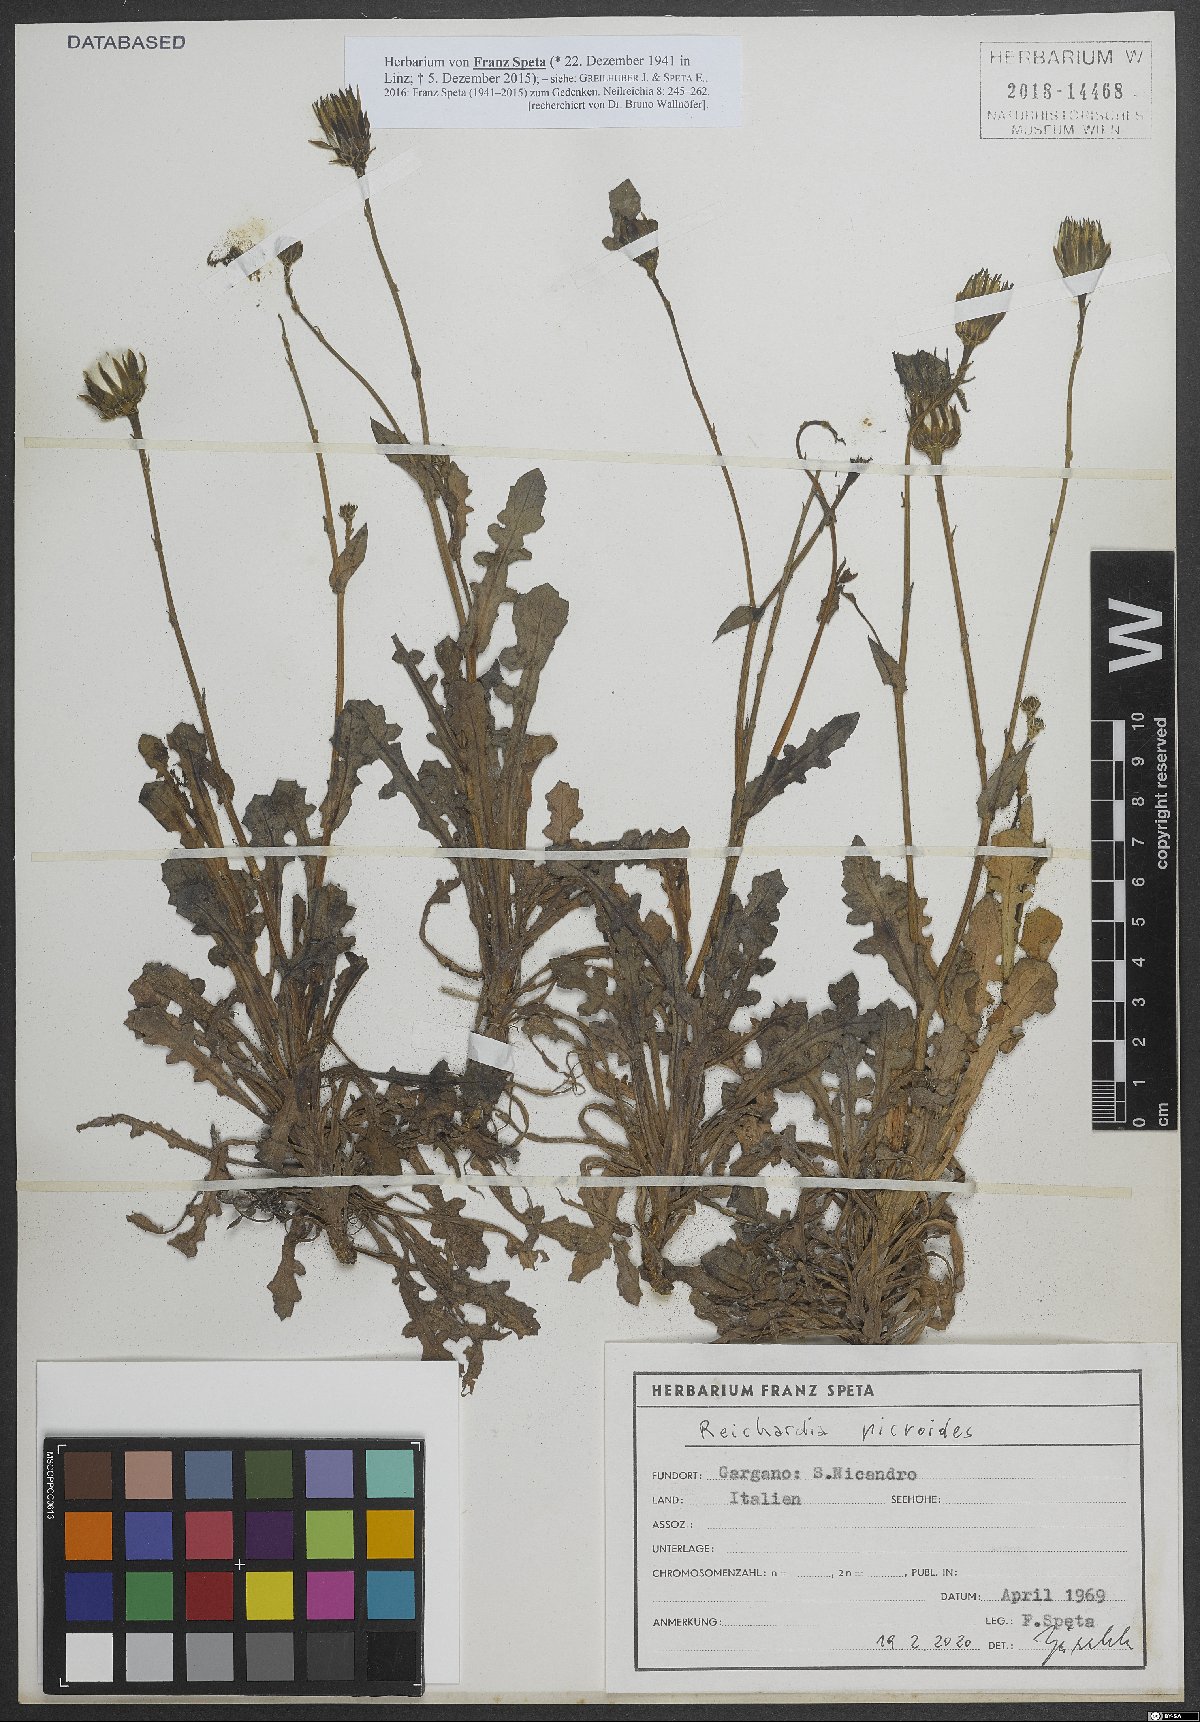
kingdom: Plantae
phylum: Tracheophyta
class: Magnoliopsida
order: Asterales
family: Asteraceae
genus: Reichardia
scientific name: Reichardia picroides
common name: Common brighteyes
